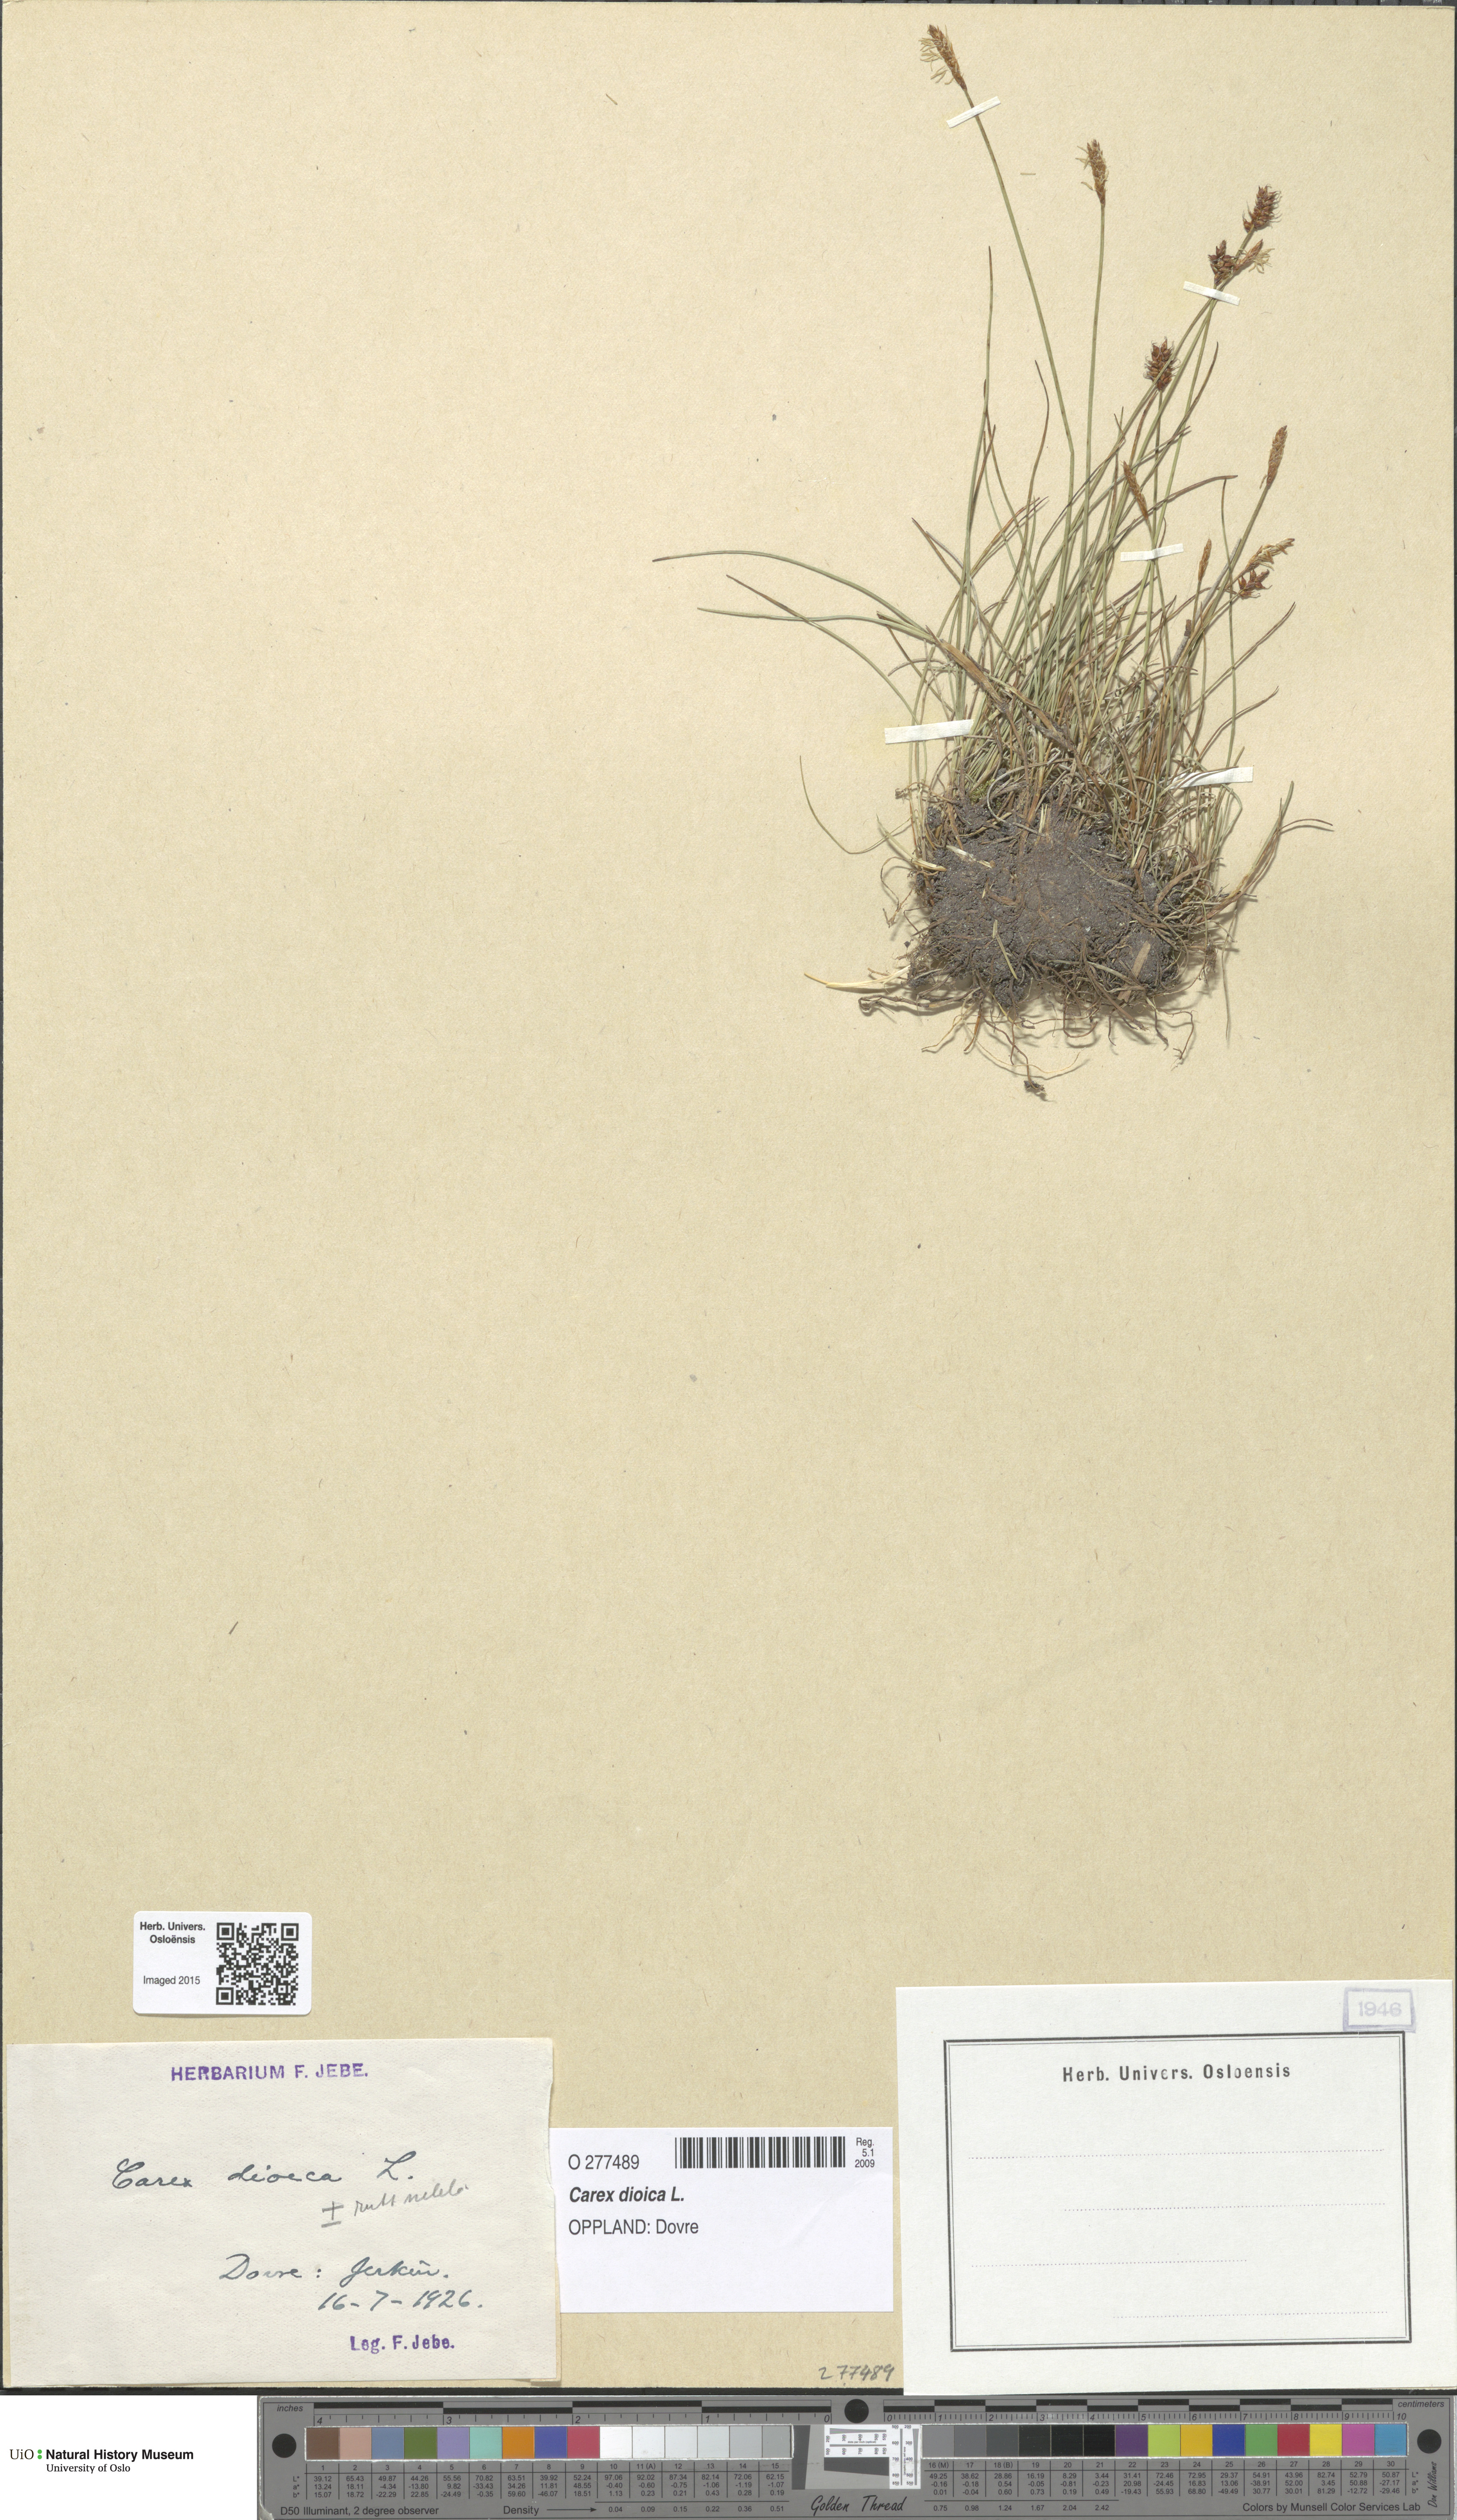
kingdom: Plantae
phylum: Tracheophyta
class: Liliopsida
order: Poales
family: Cyperaceae
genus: Carex
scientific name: Carex dioica
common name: Dioecious sedge
